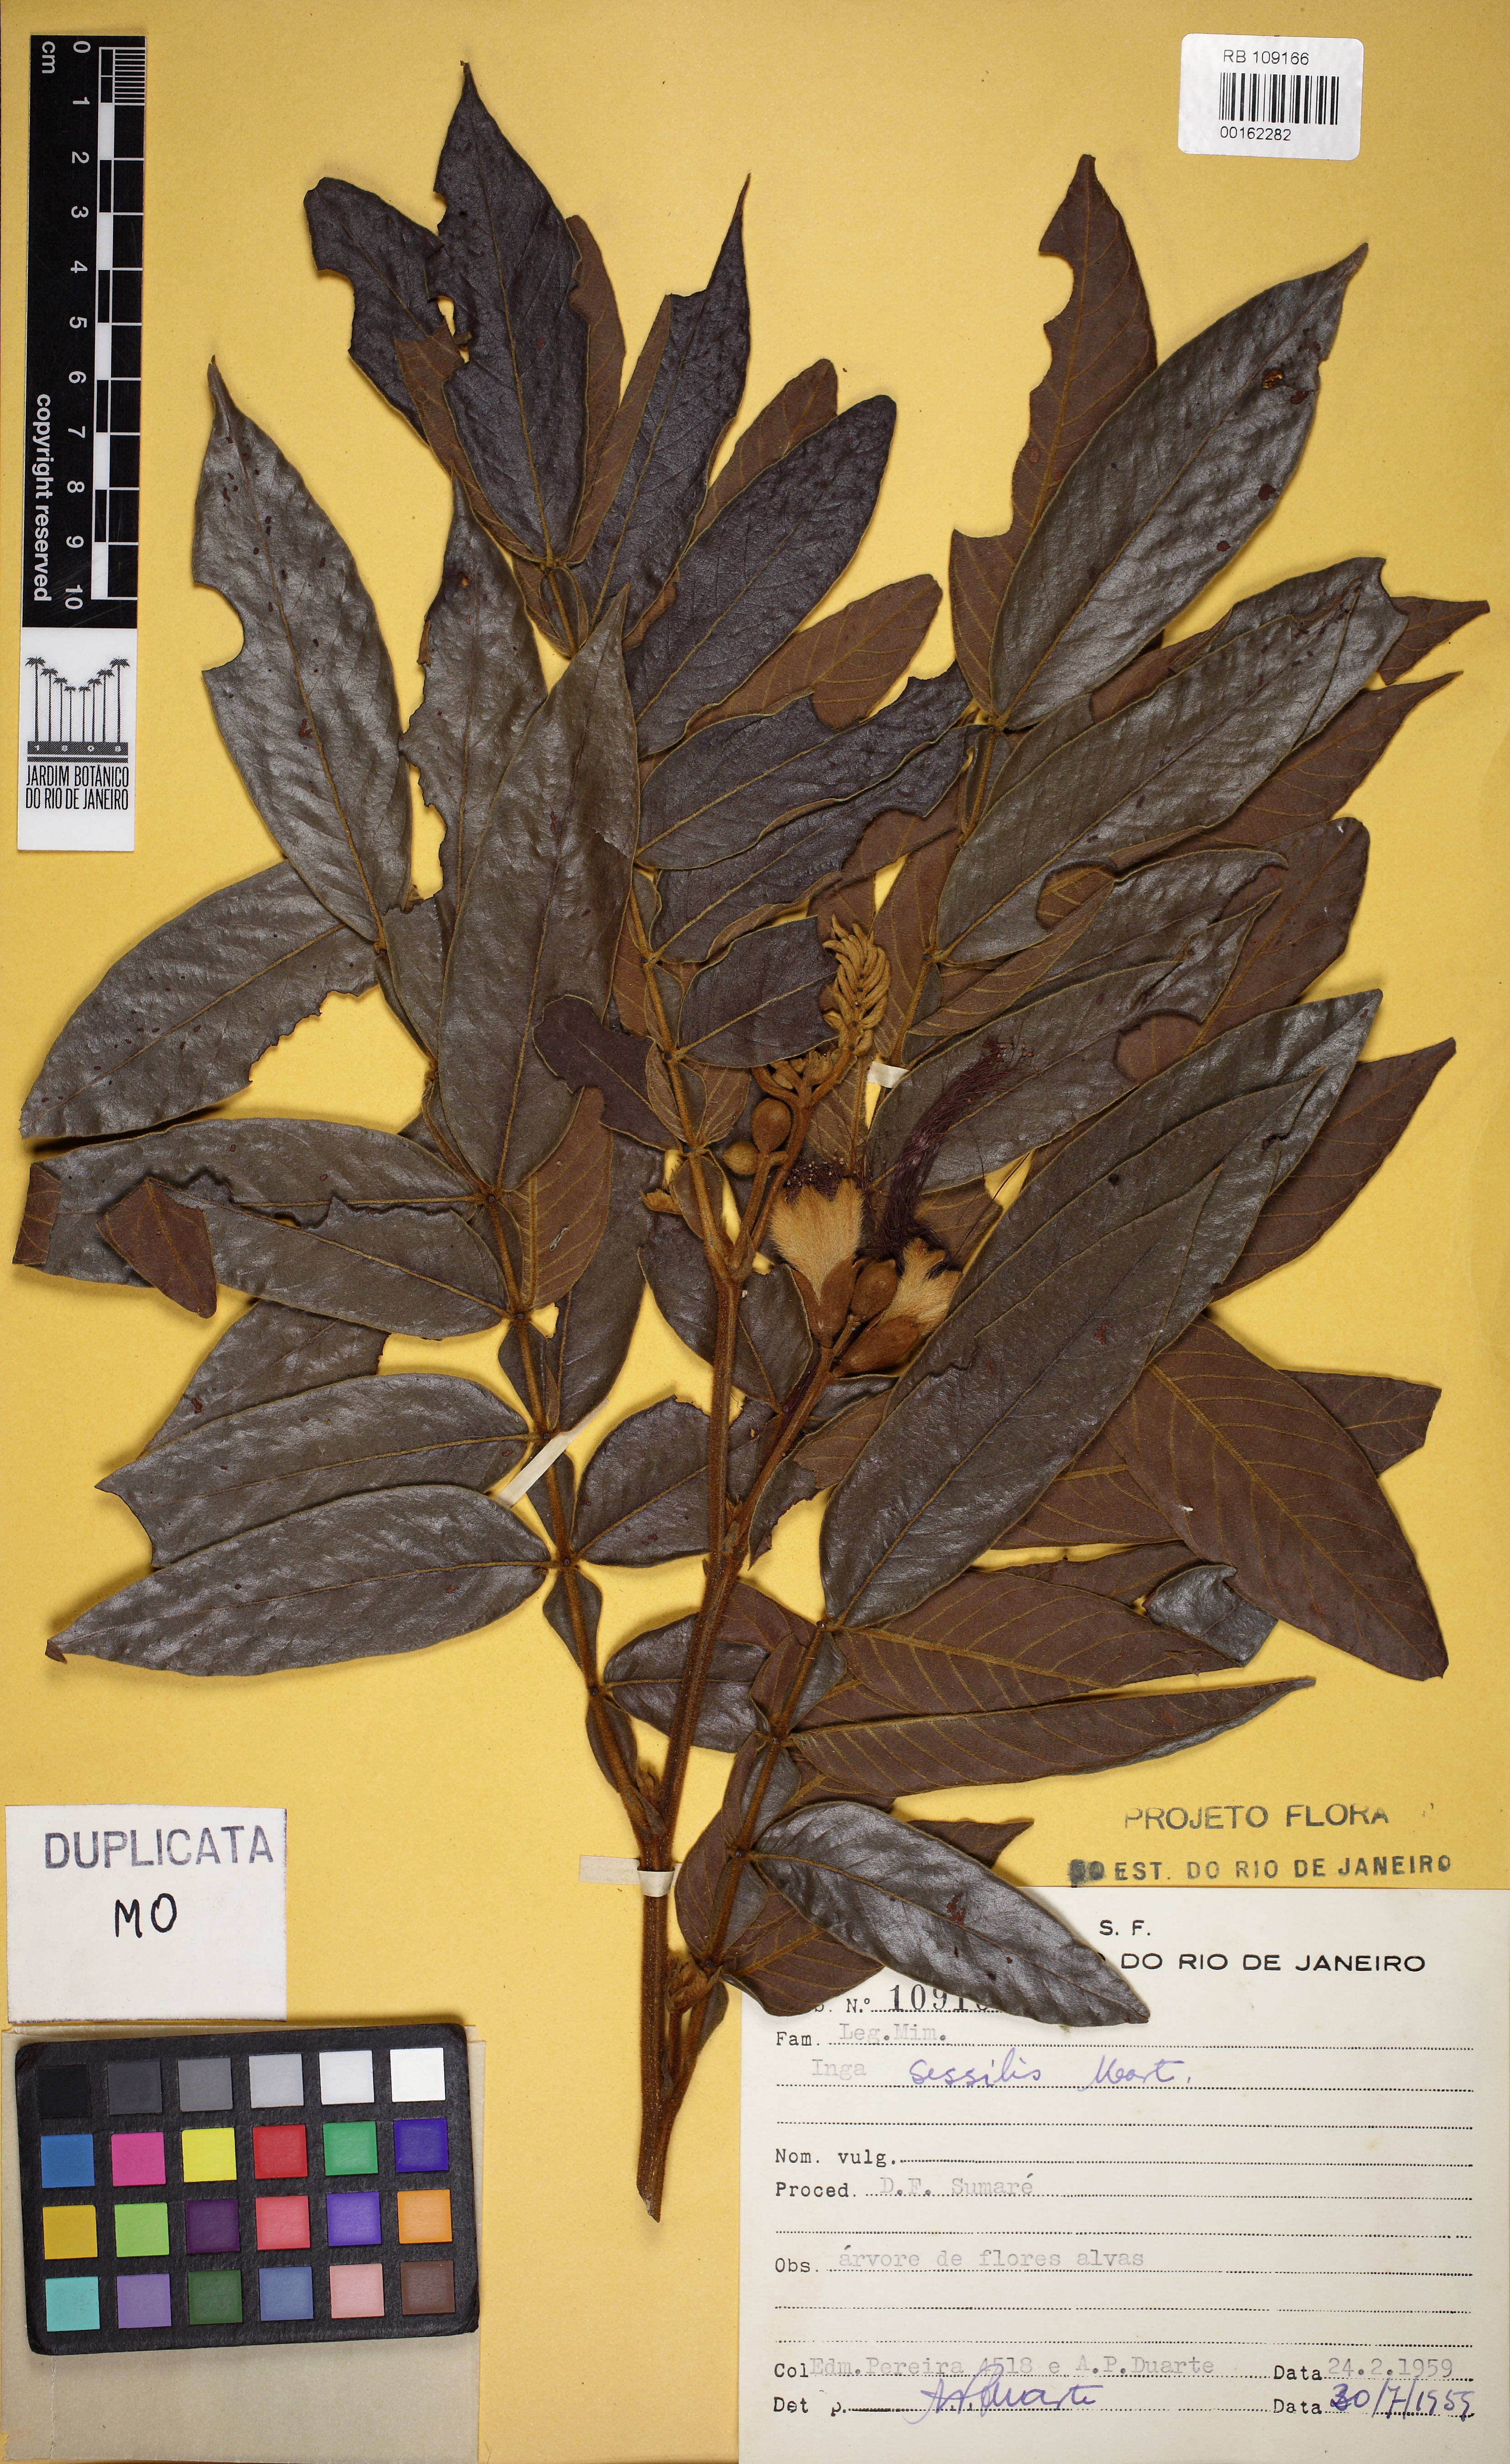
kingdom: Plantae
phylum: Tracheophyta
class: Magnoliopsida
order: Fabales
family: Fabaceae
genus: Inga
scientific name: Inga sessilis
